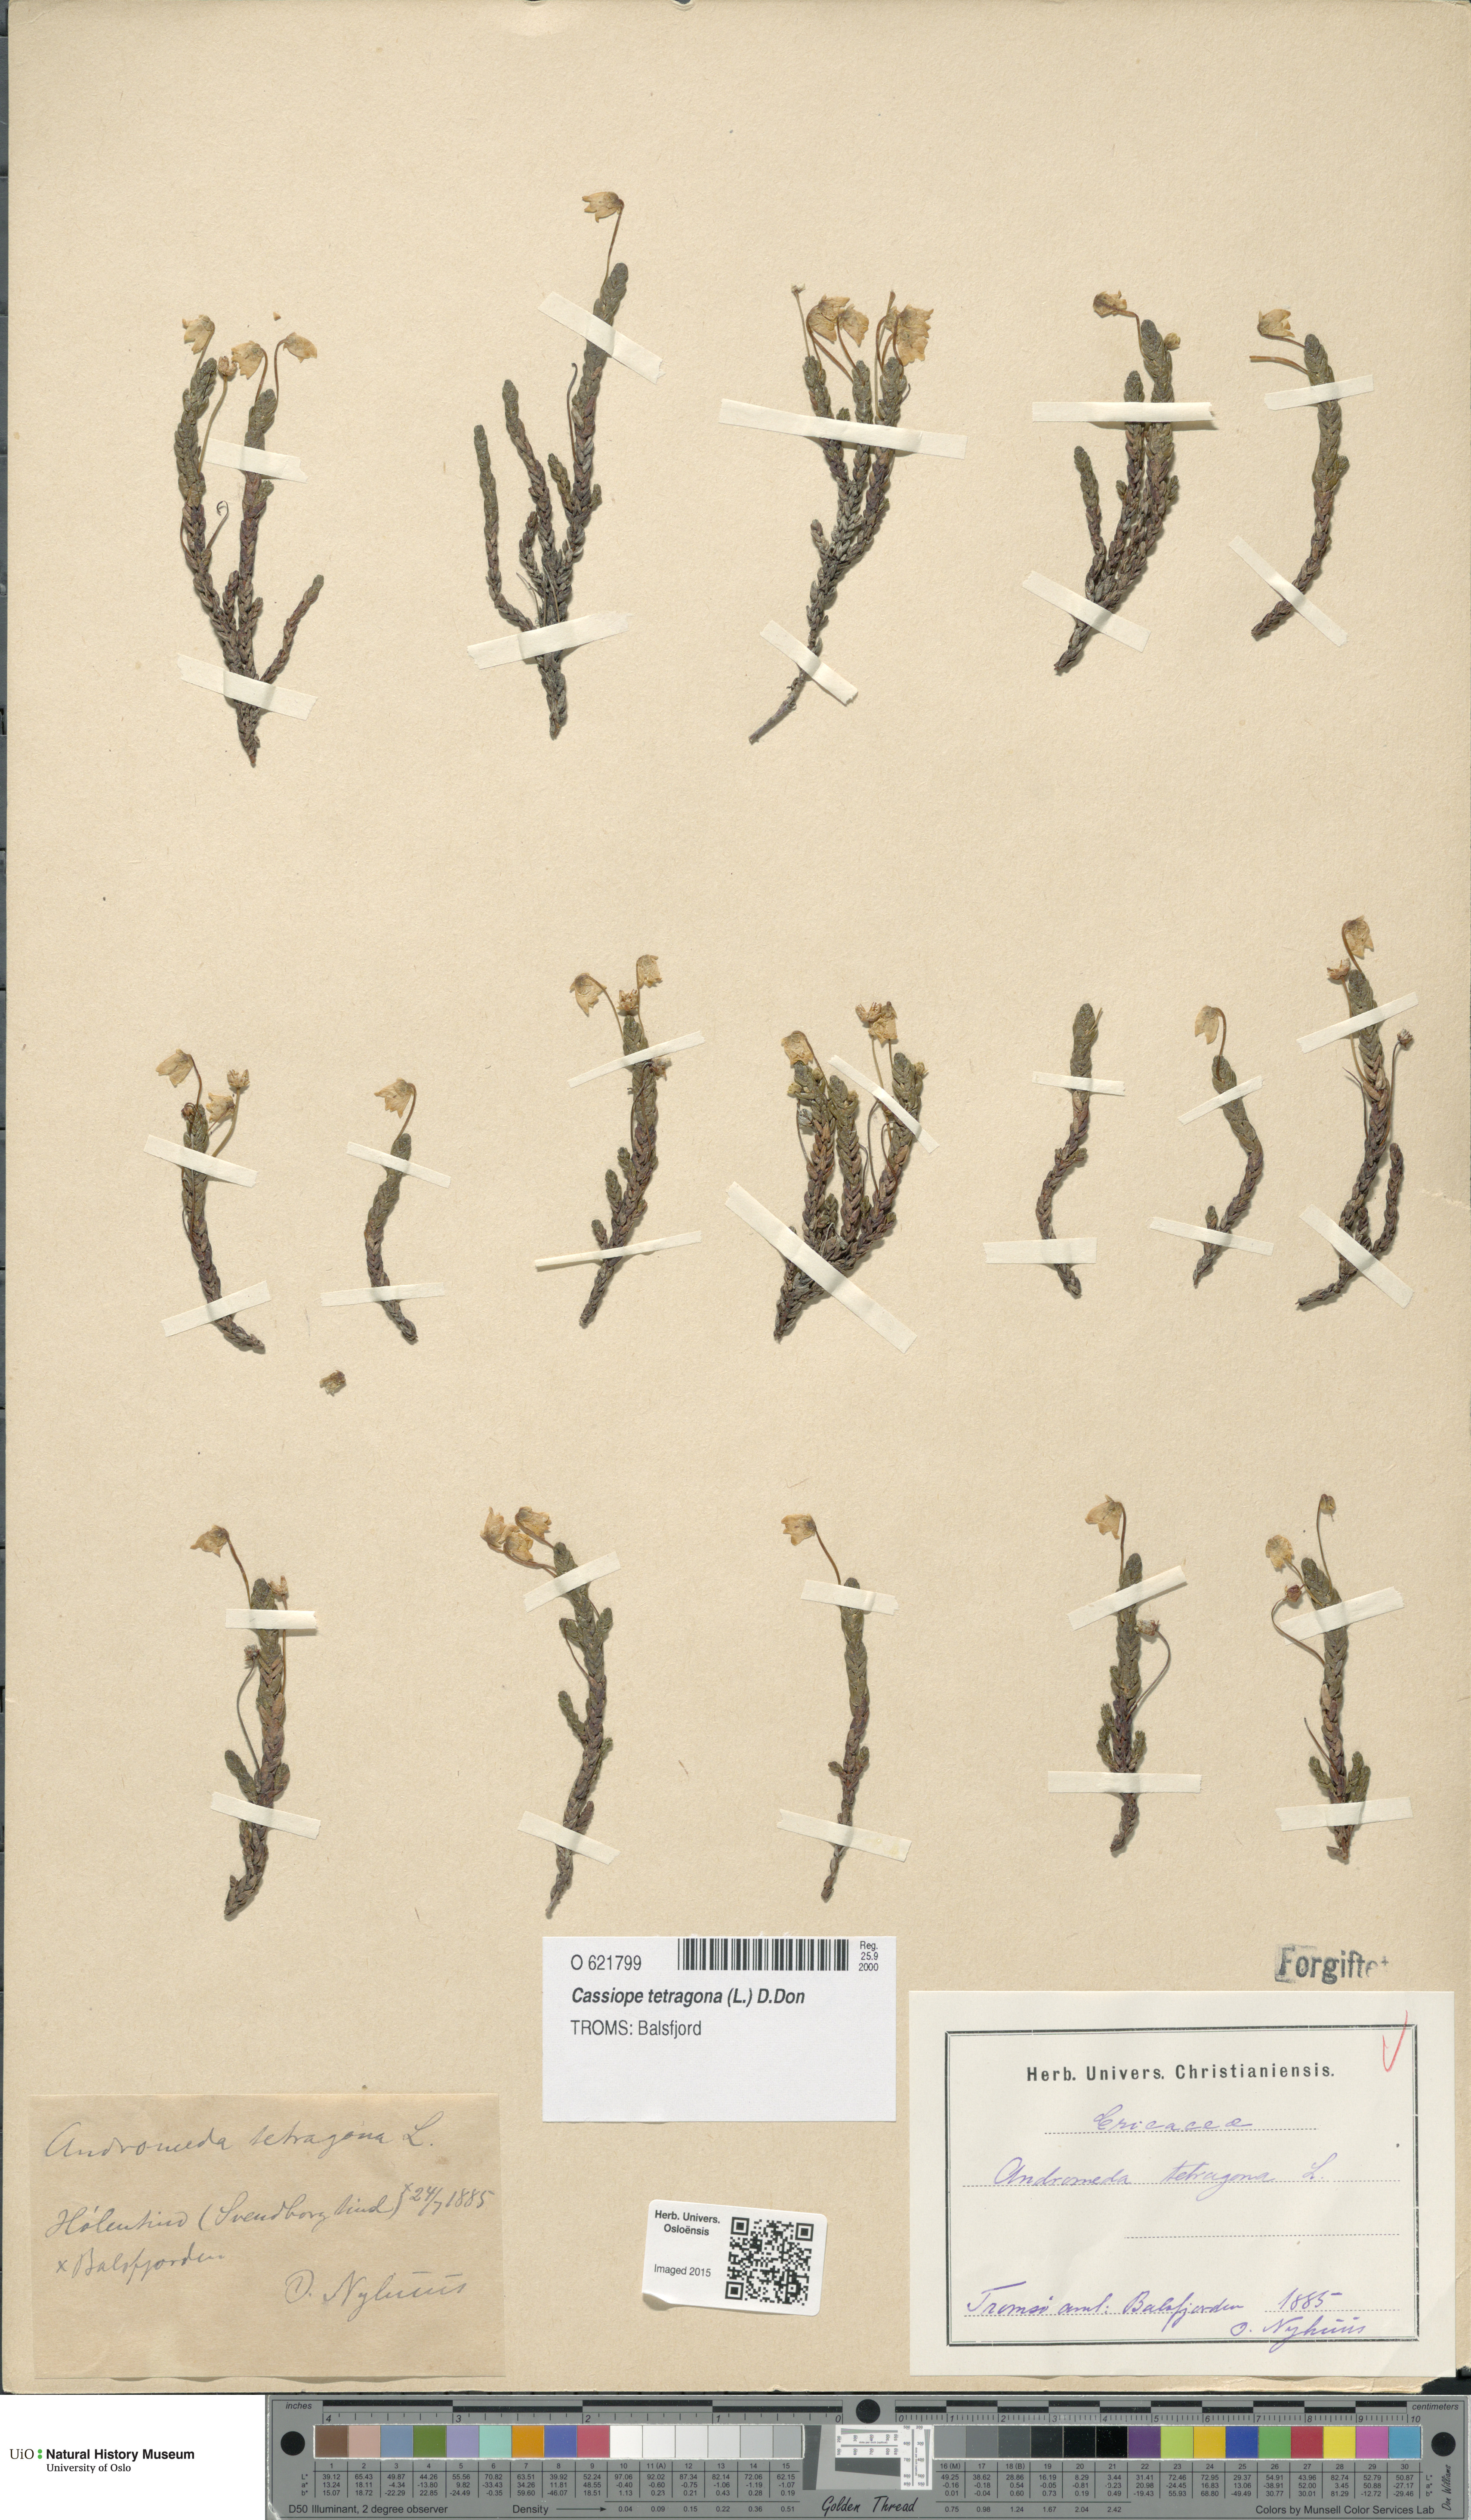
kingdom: Plantae
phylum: Tracheophyta
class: Magnoliopsida
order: Ericales
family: Ericaceae
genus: Cassiope
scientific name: Cassiope tetragona
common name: Arctic bell heather
